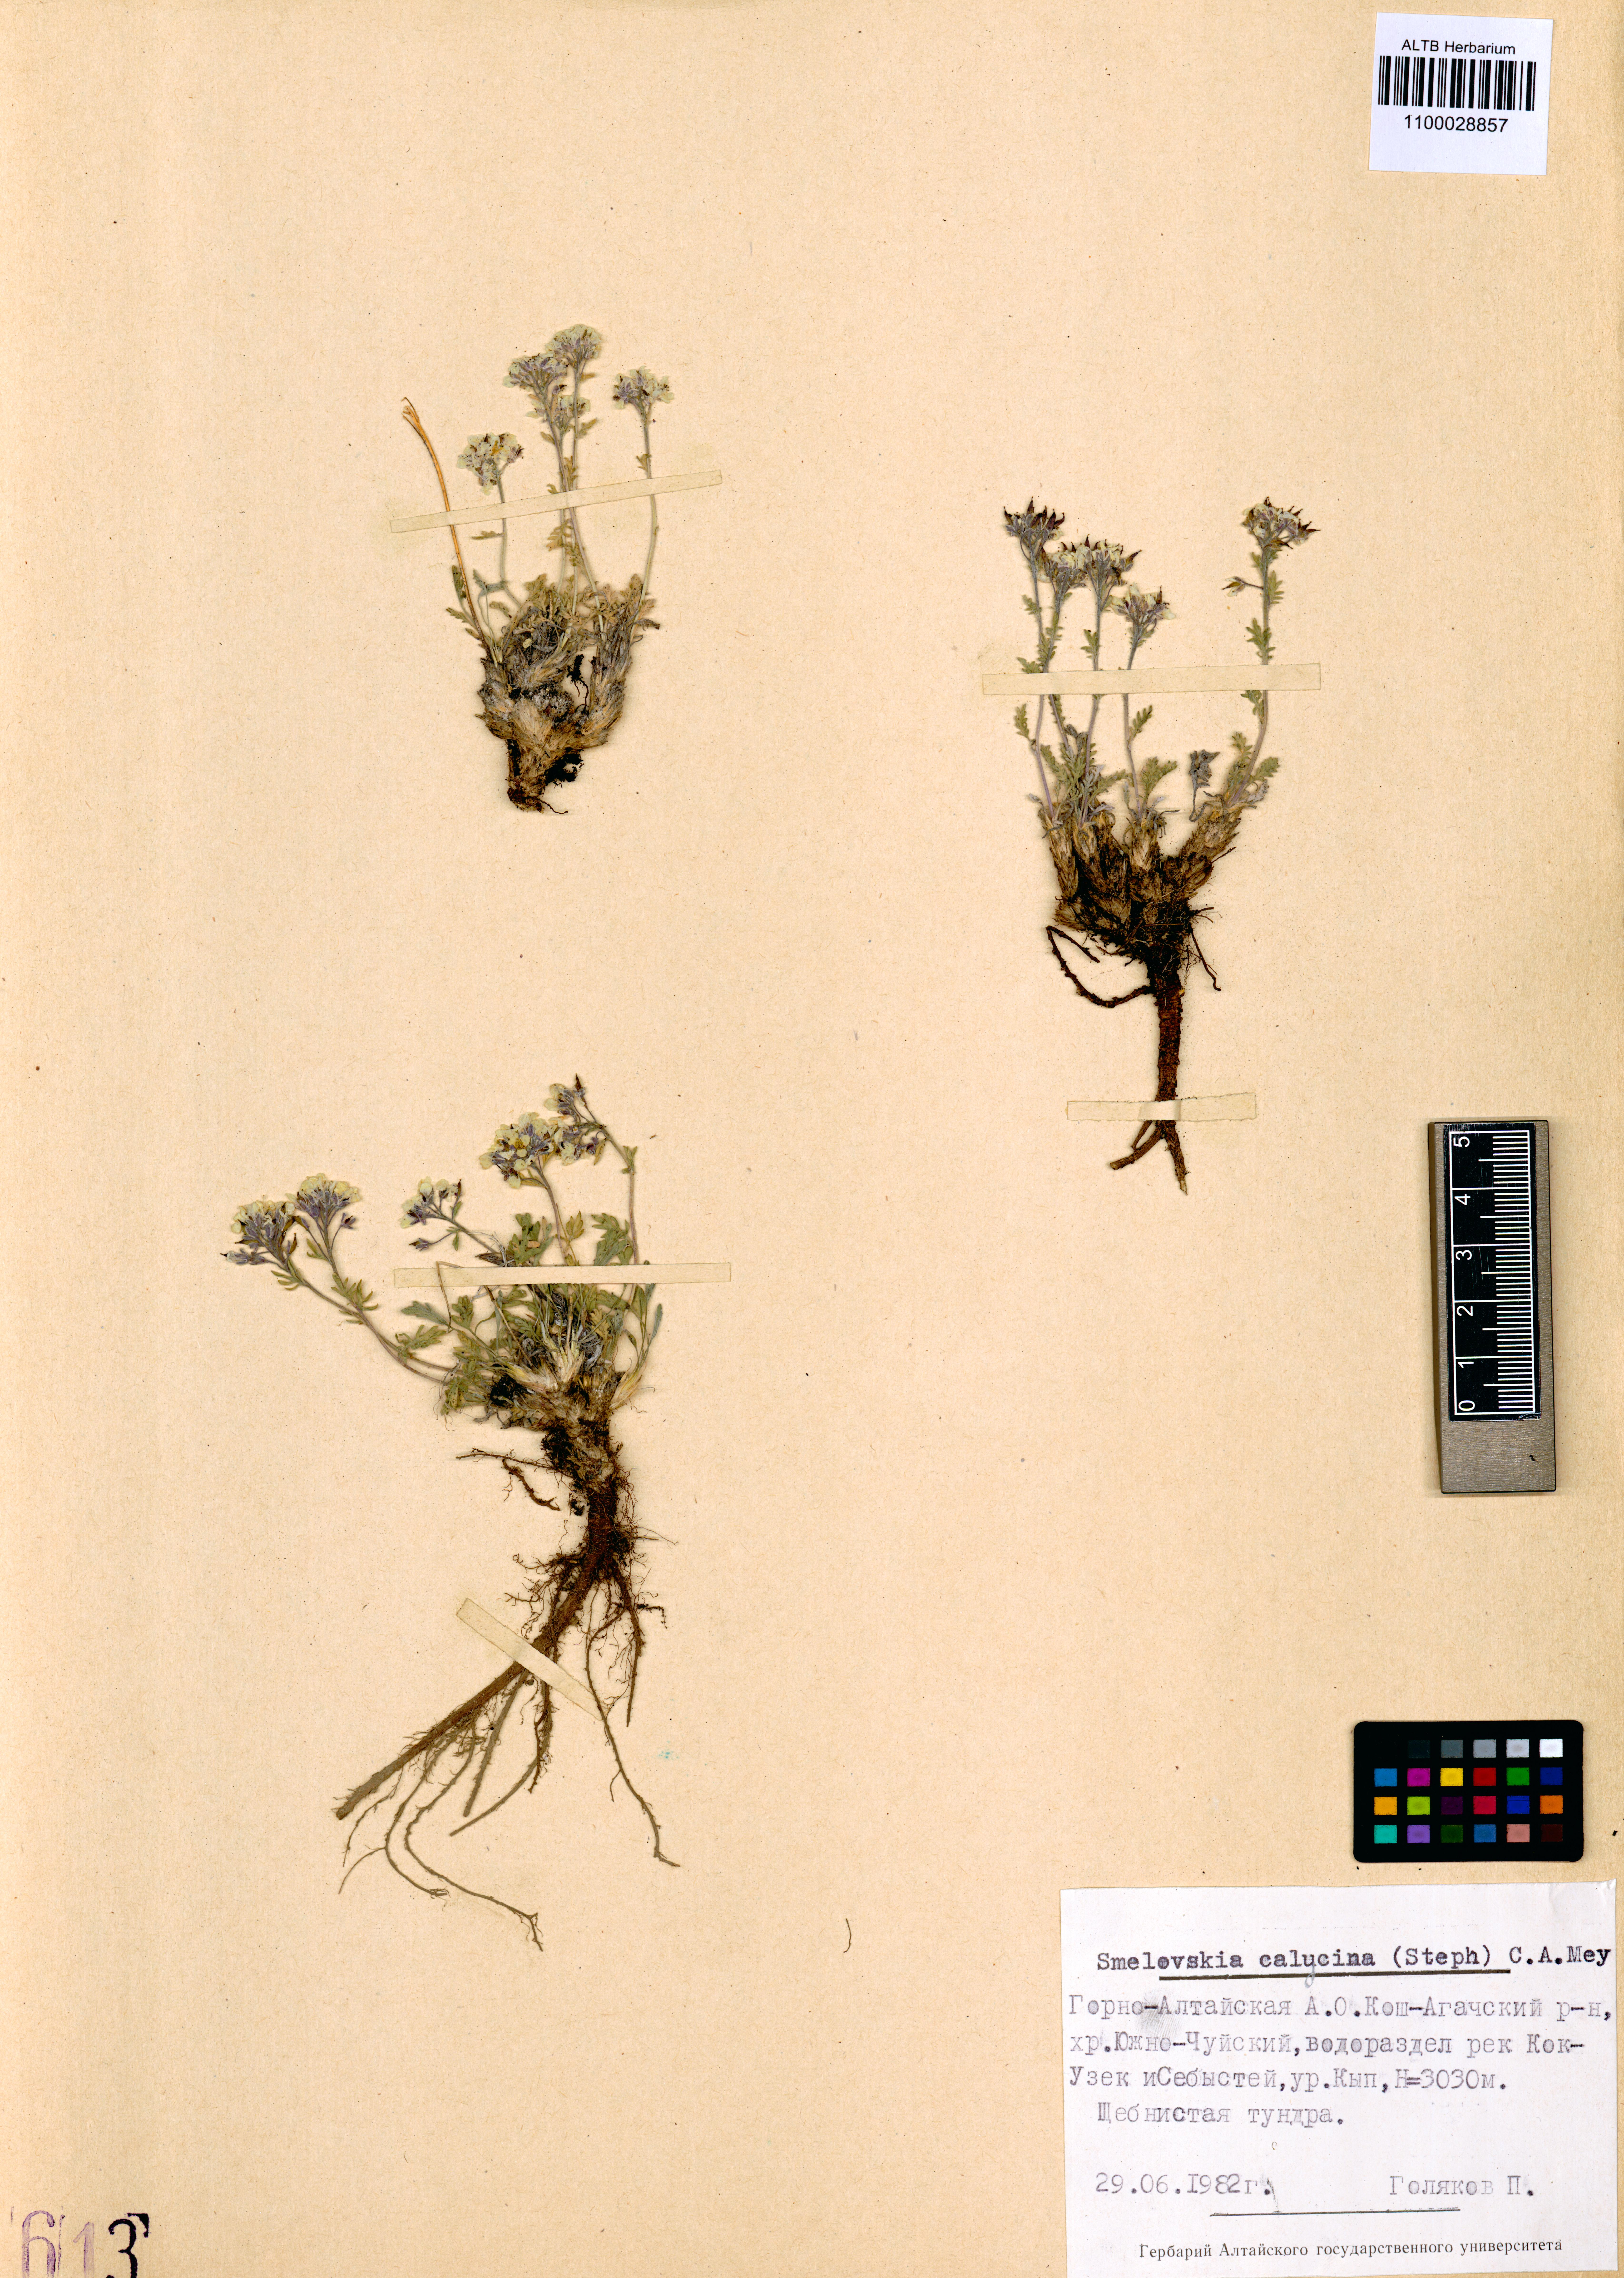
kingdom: Plantae
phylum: Tracheophyta
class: Magnoliopsida
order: Brassicales
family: Brassicaceae
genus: Smelowskia
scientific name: Smelowskia calycina
